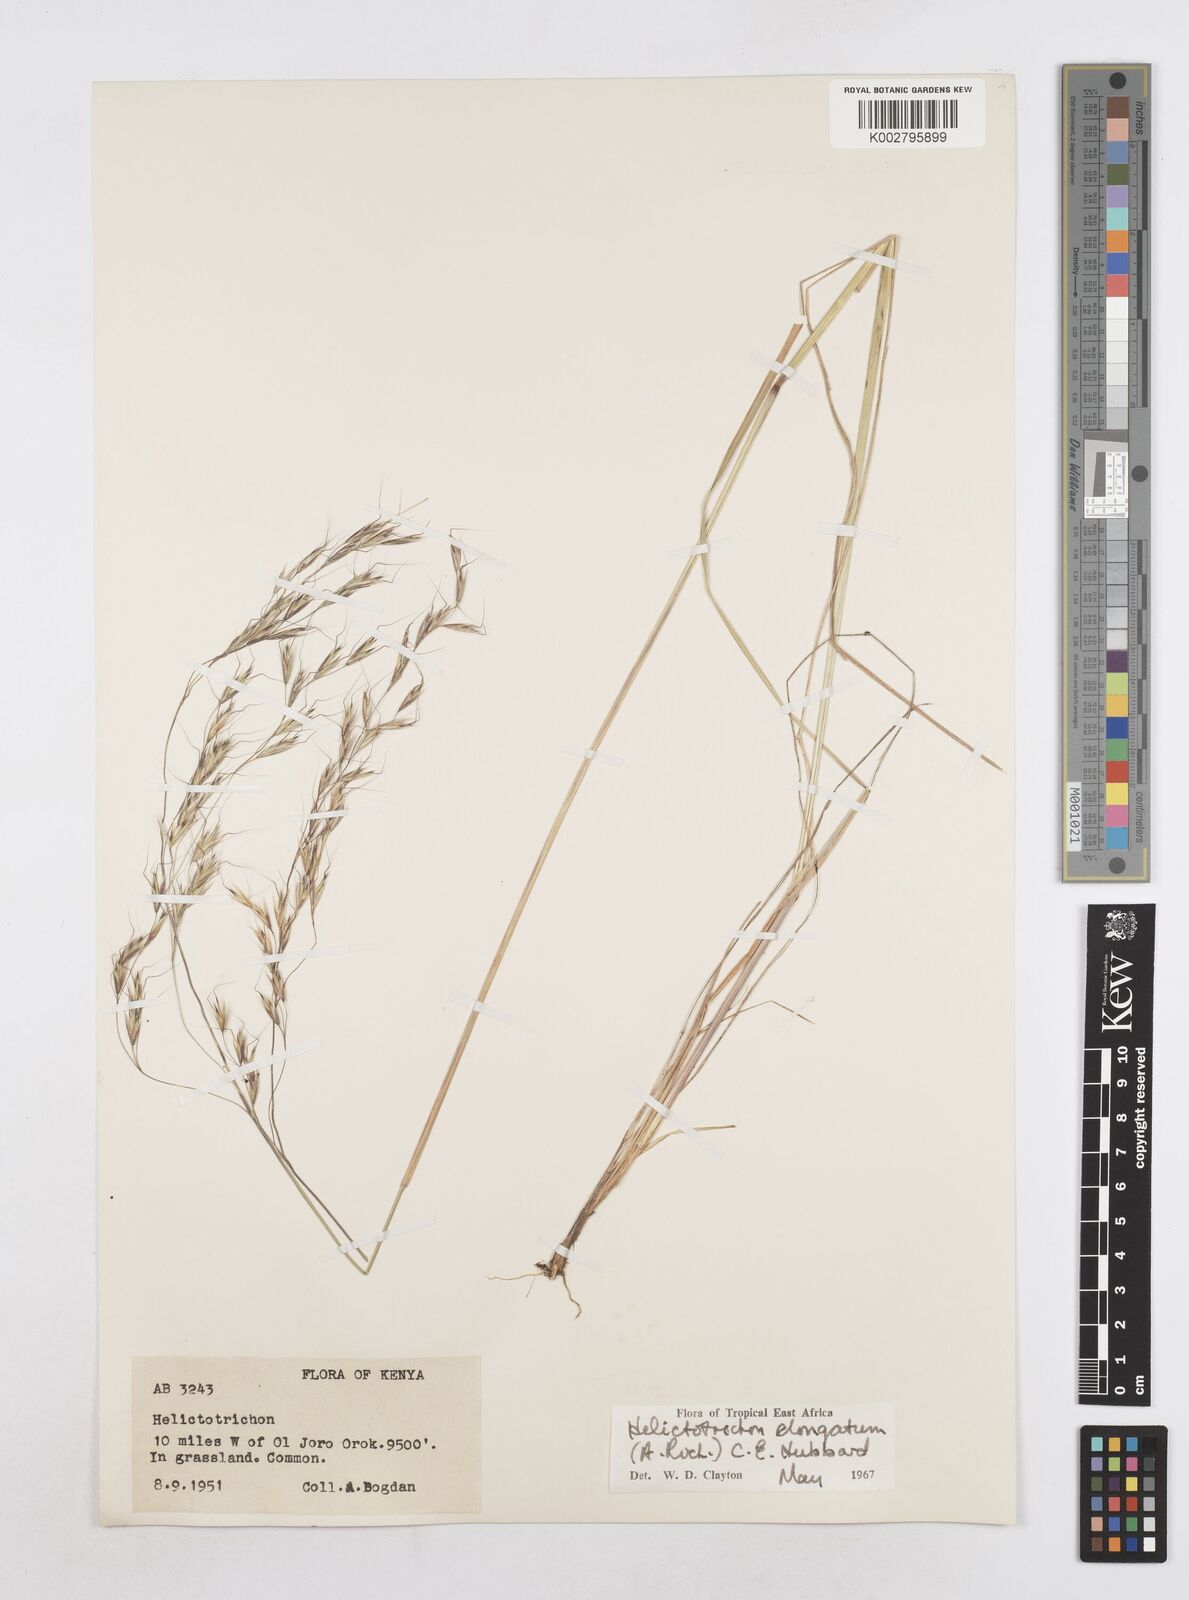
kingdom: Plantae
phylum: Tracheophyta
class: Liliopsida
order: Poales
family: Poaceae
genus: Trisetopsis
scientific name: Trisetopsis elongata
